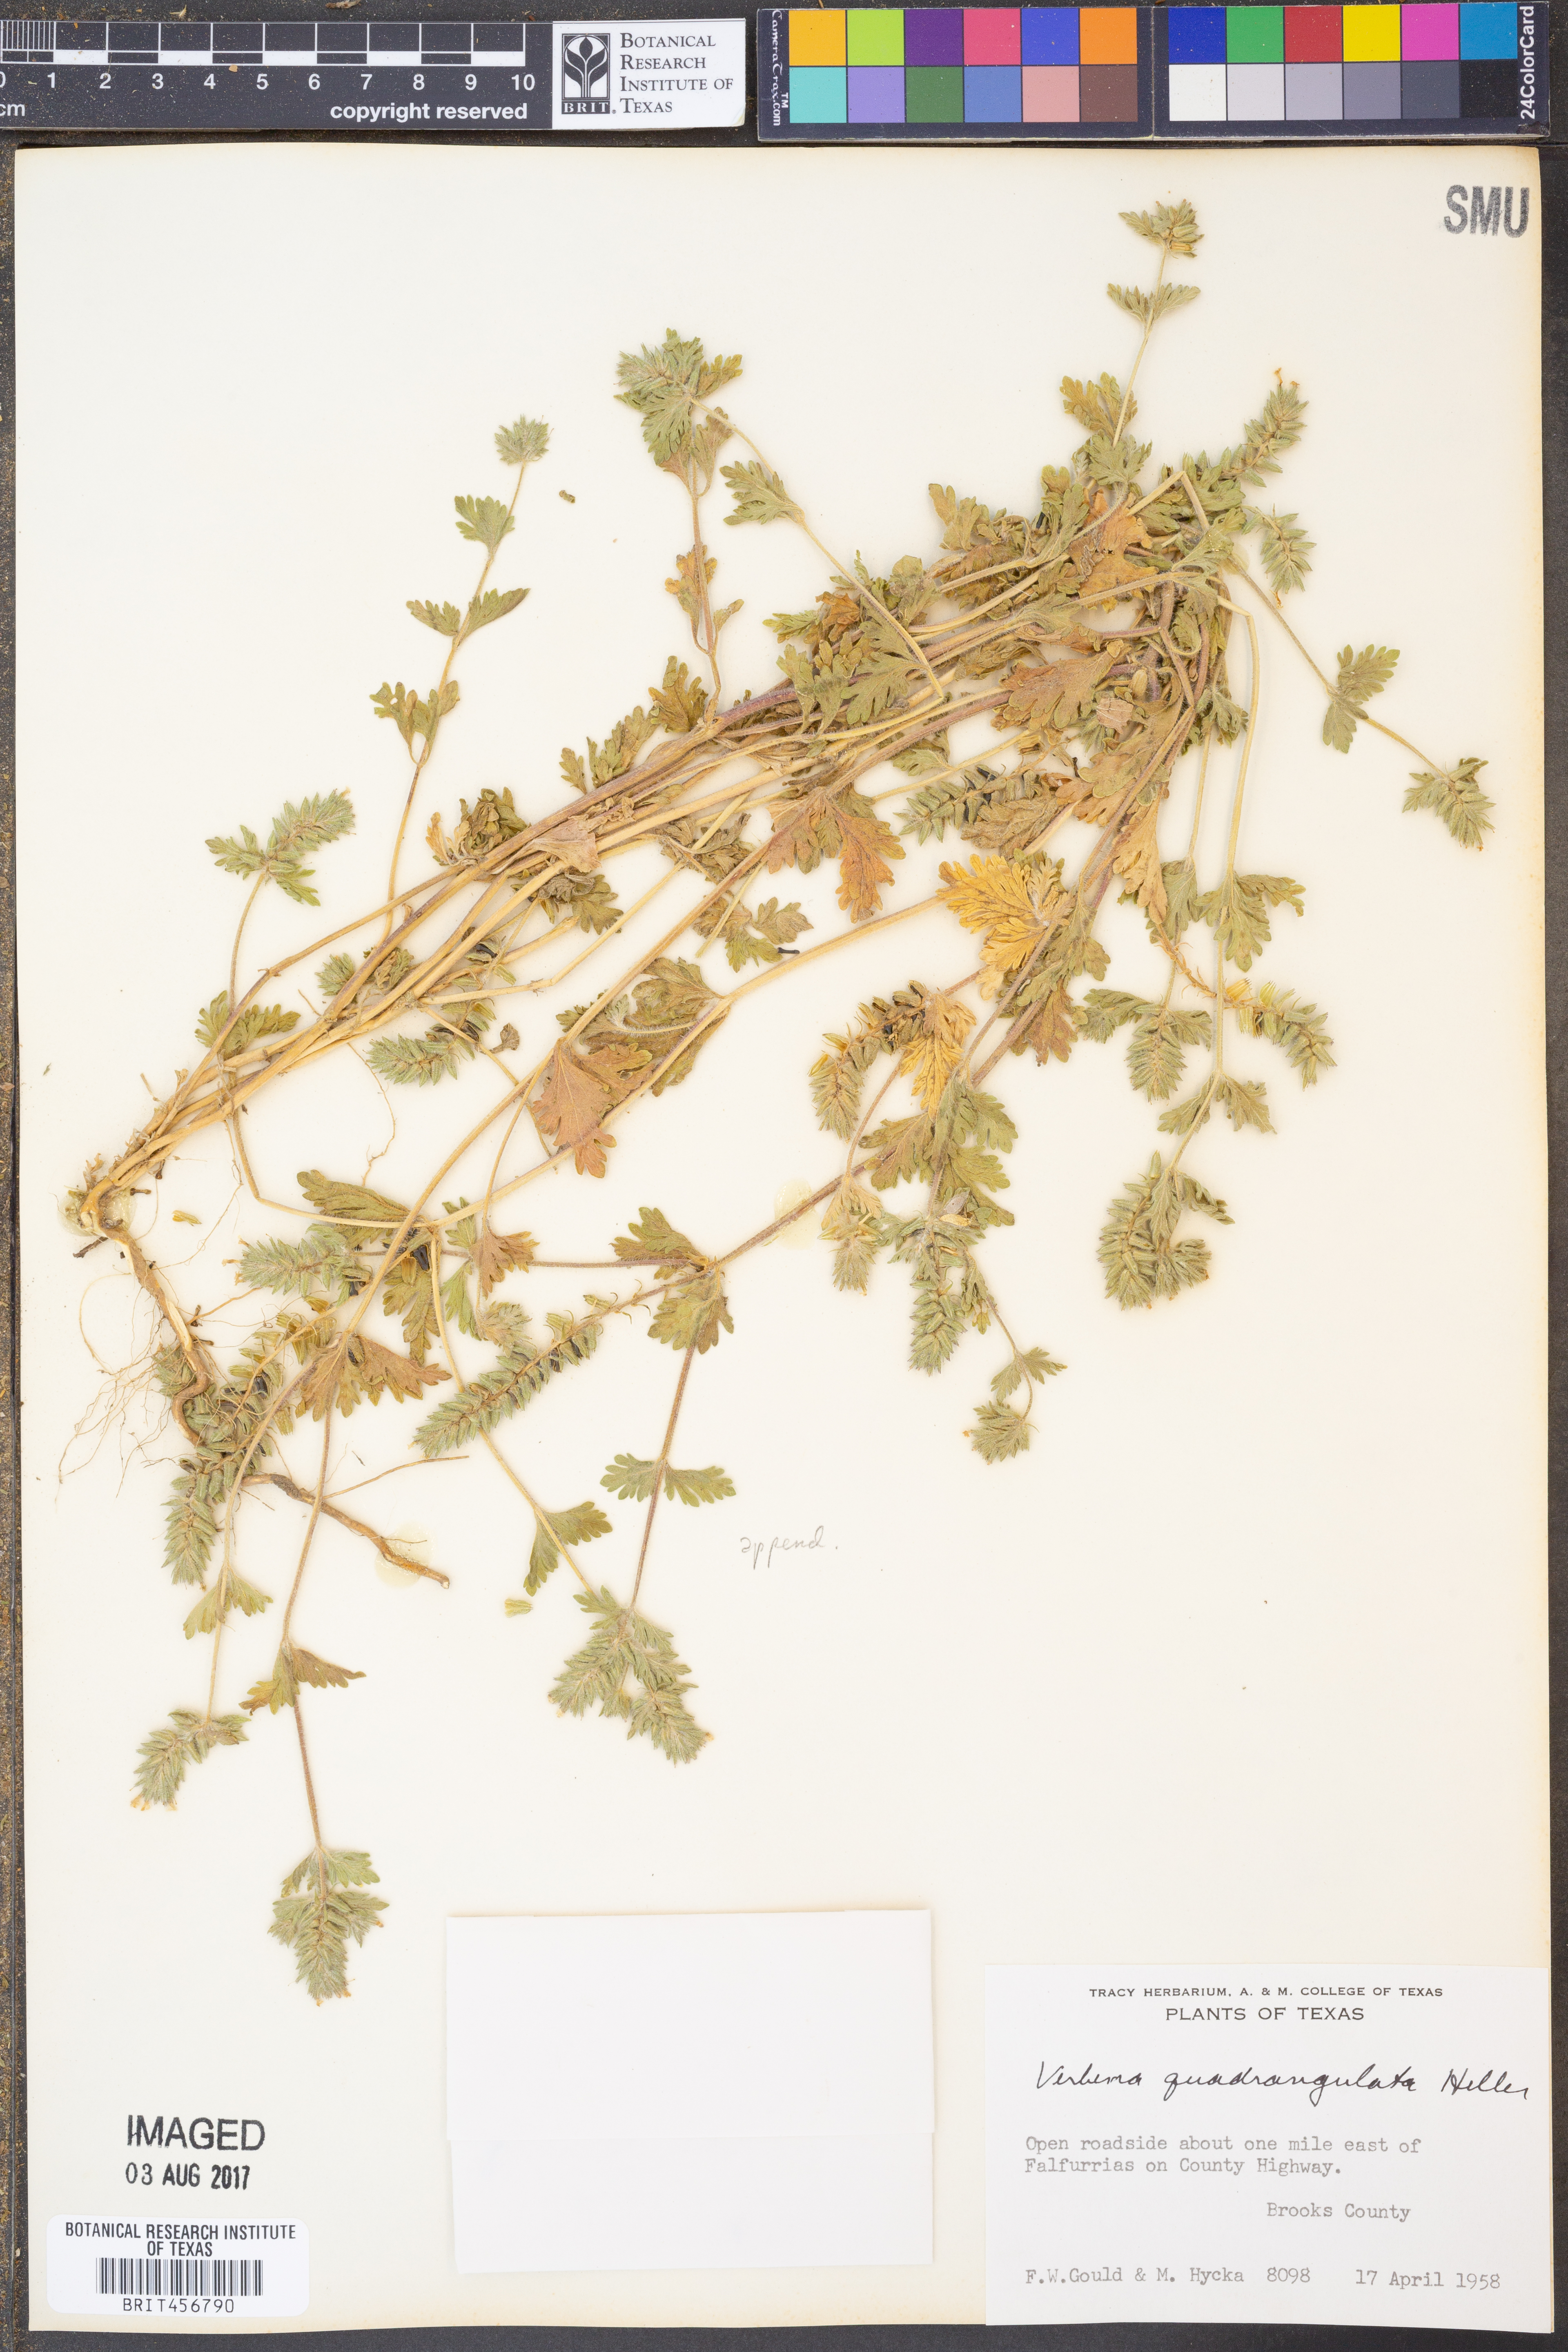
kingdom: Plantae
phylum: Tracheophyta
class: Magnoliopsida
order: Lamiales
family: Verbenaceae
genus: Verbena
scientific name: Verbena quadrangulata
